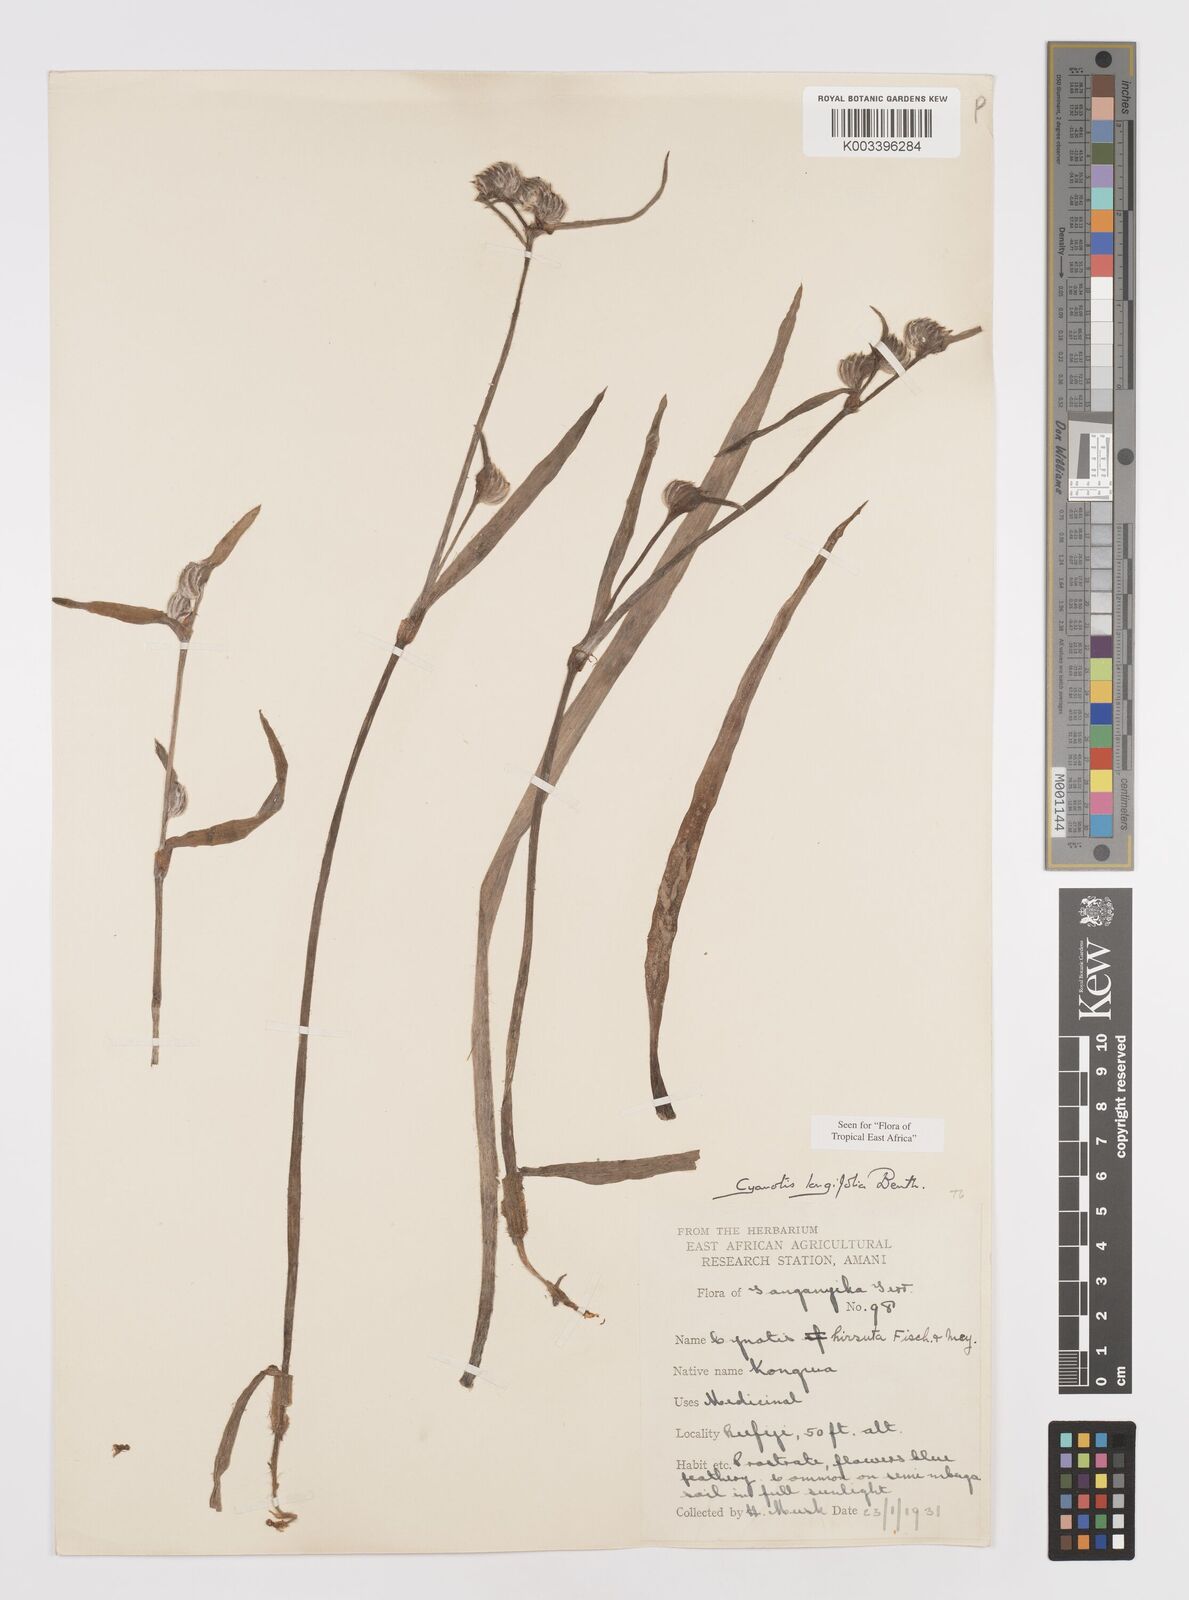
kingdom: Plantae
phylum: Tracheophyta
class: Liliopsida
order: Commelinales
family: Commelinaceae
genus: Cyanotis
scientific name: Cyanotis longifolia
